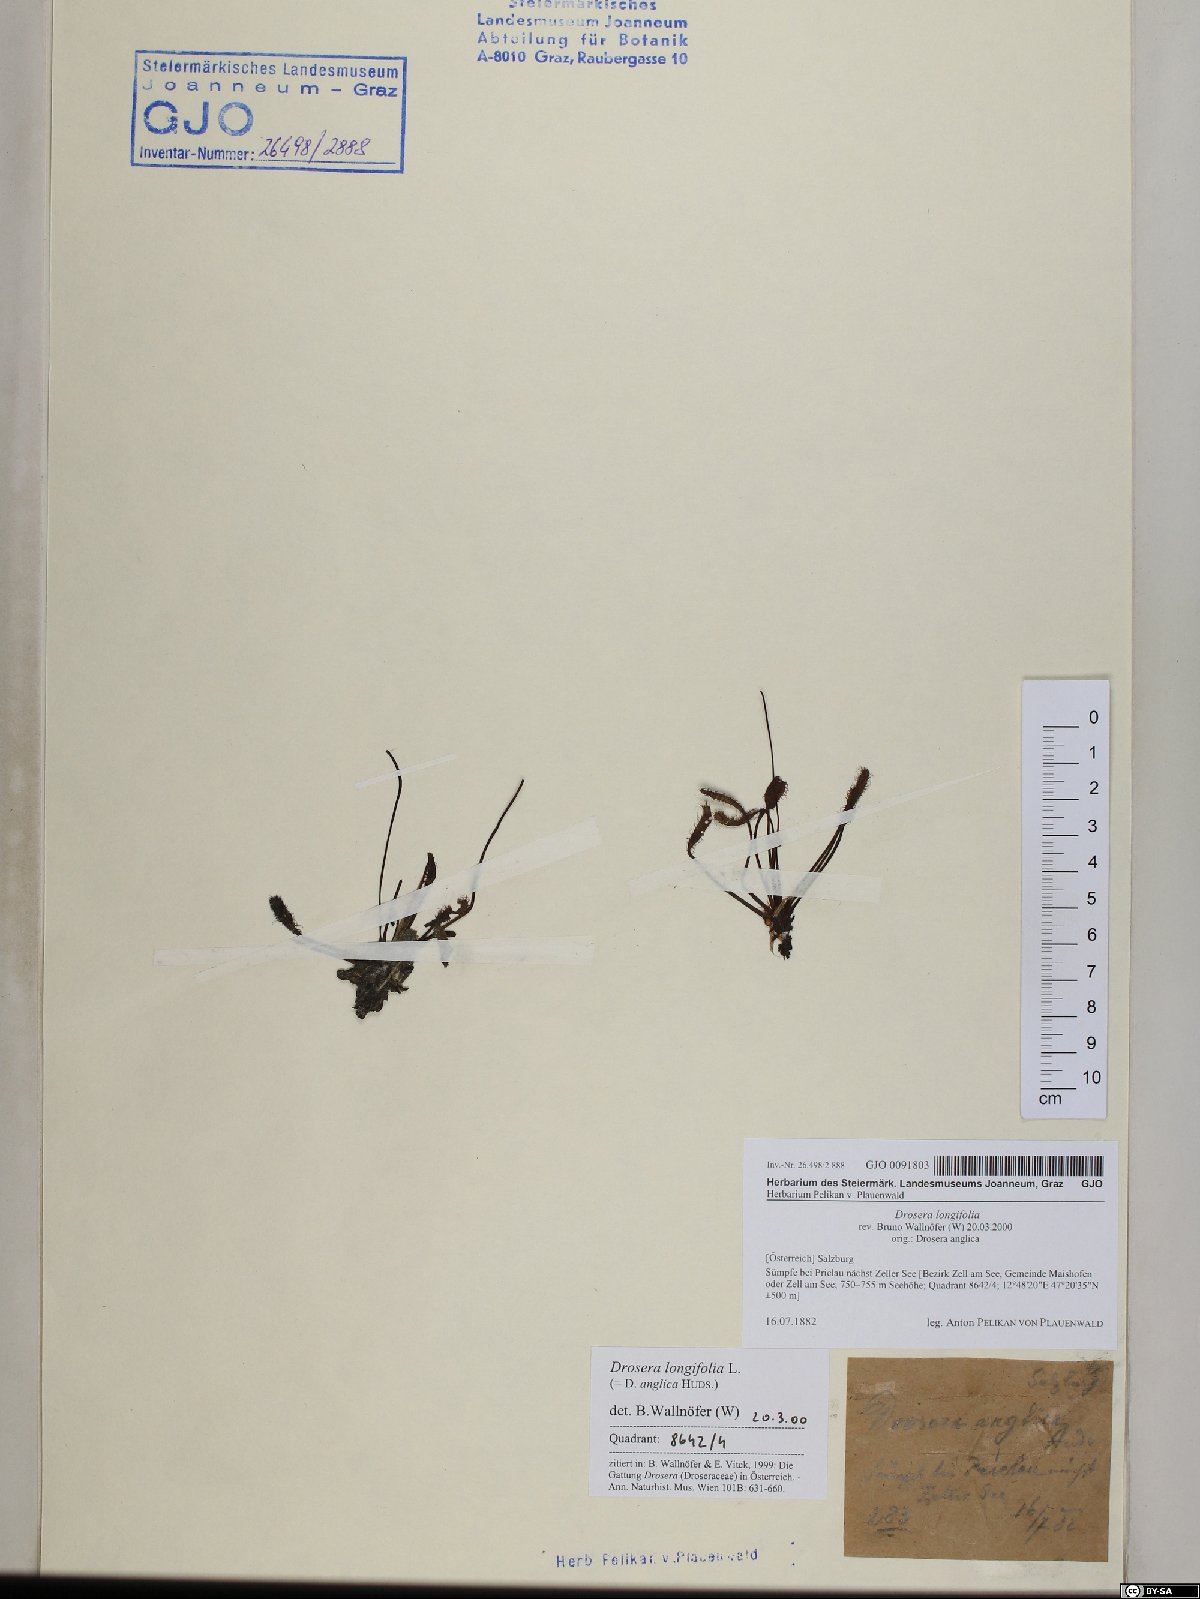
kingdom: Plantae
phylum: Tracheophyta
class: Magnoliopsida
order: Caryophyllales
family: Droseraceae
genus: Drosera
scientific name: Drosera anglica
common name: Great sundew
